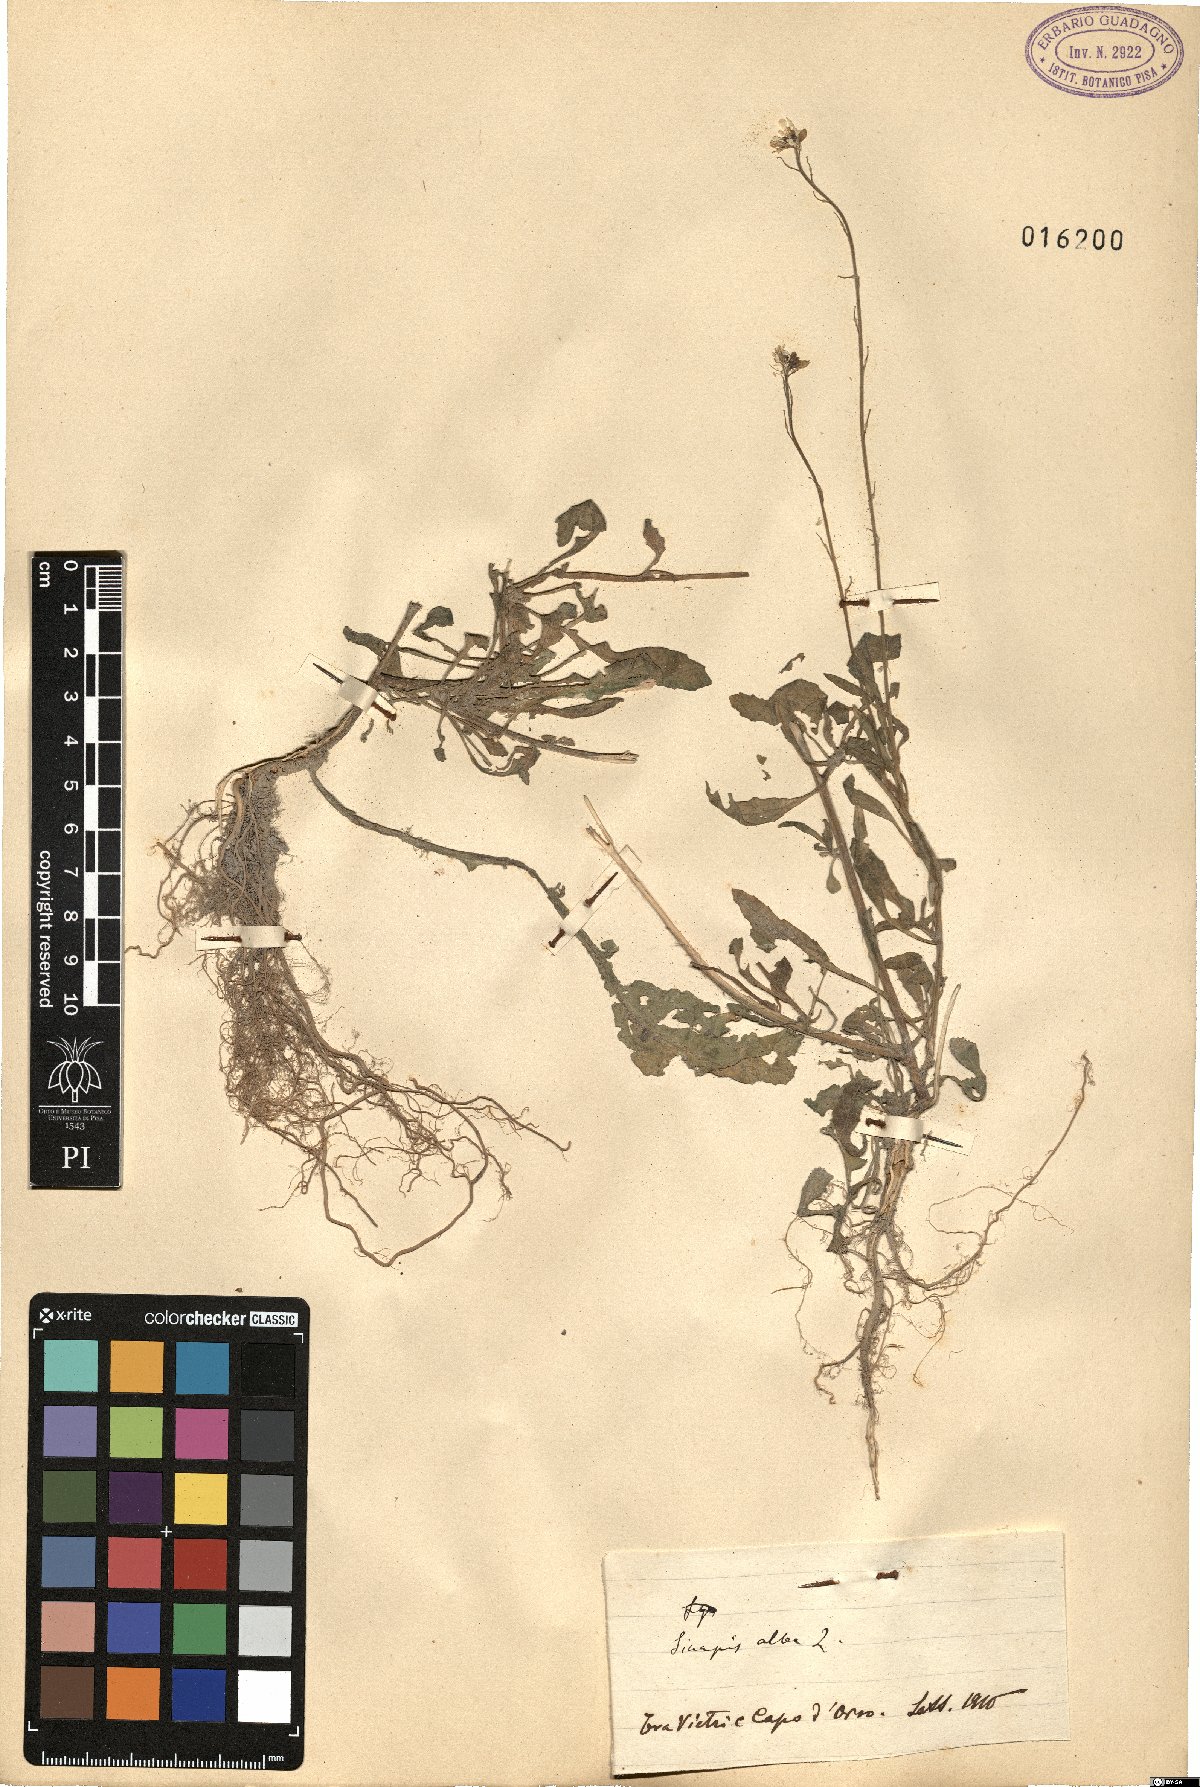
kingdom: Plantae
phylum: Tracheophyta
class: Magnoliopsida
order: Brassicales
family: Brassicaceae
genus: Sinapis
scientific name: Sinapis alba
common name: White mustard
